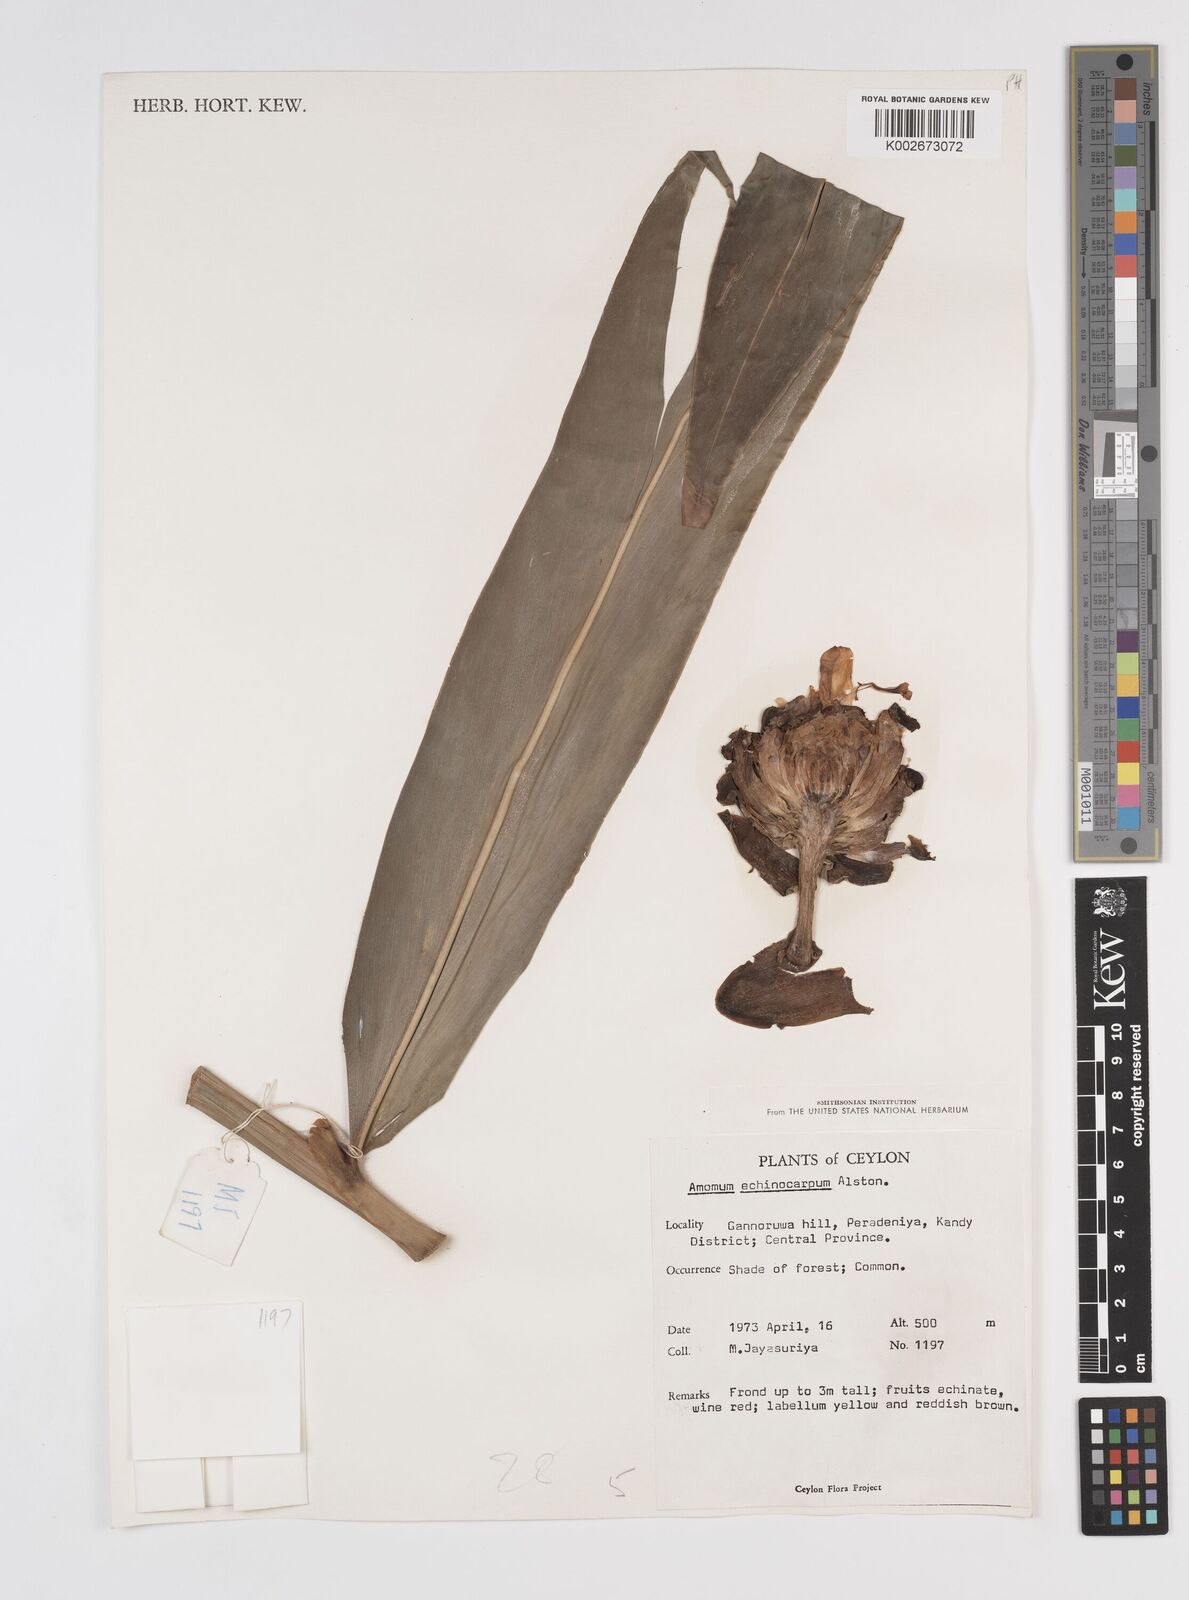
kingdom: Plantae
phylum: Tracheophyta
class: Liliopsida
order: Zingiberales
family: Zingiberaceae
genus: Meistera
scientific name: Meistera echinocarpa
